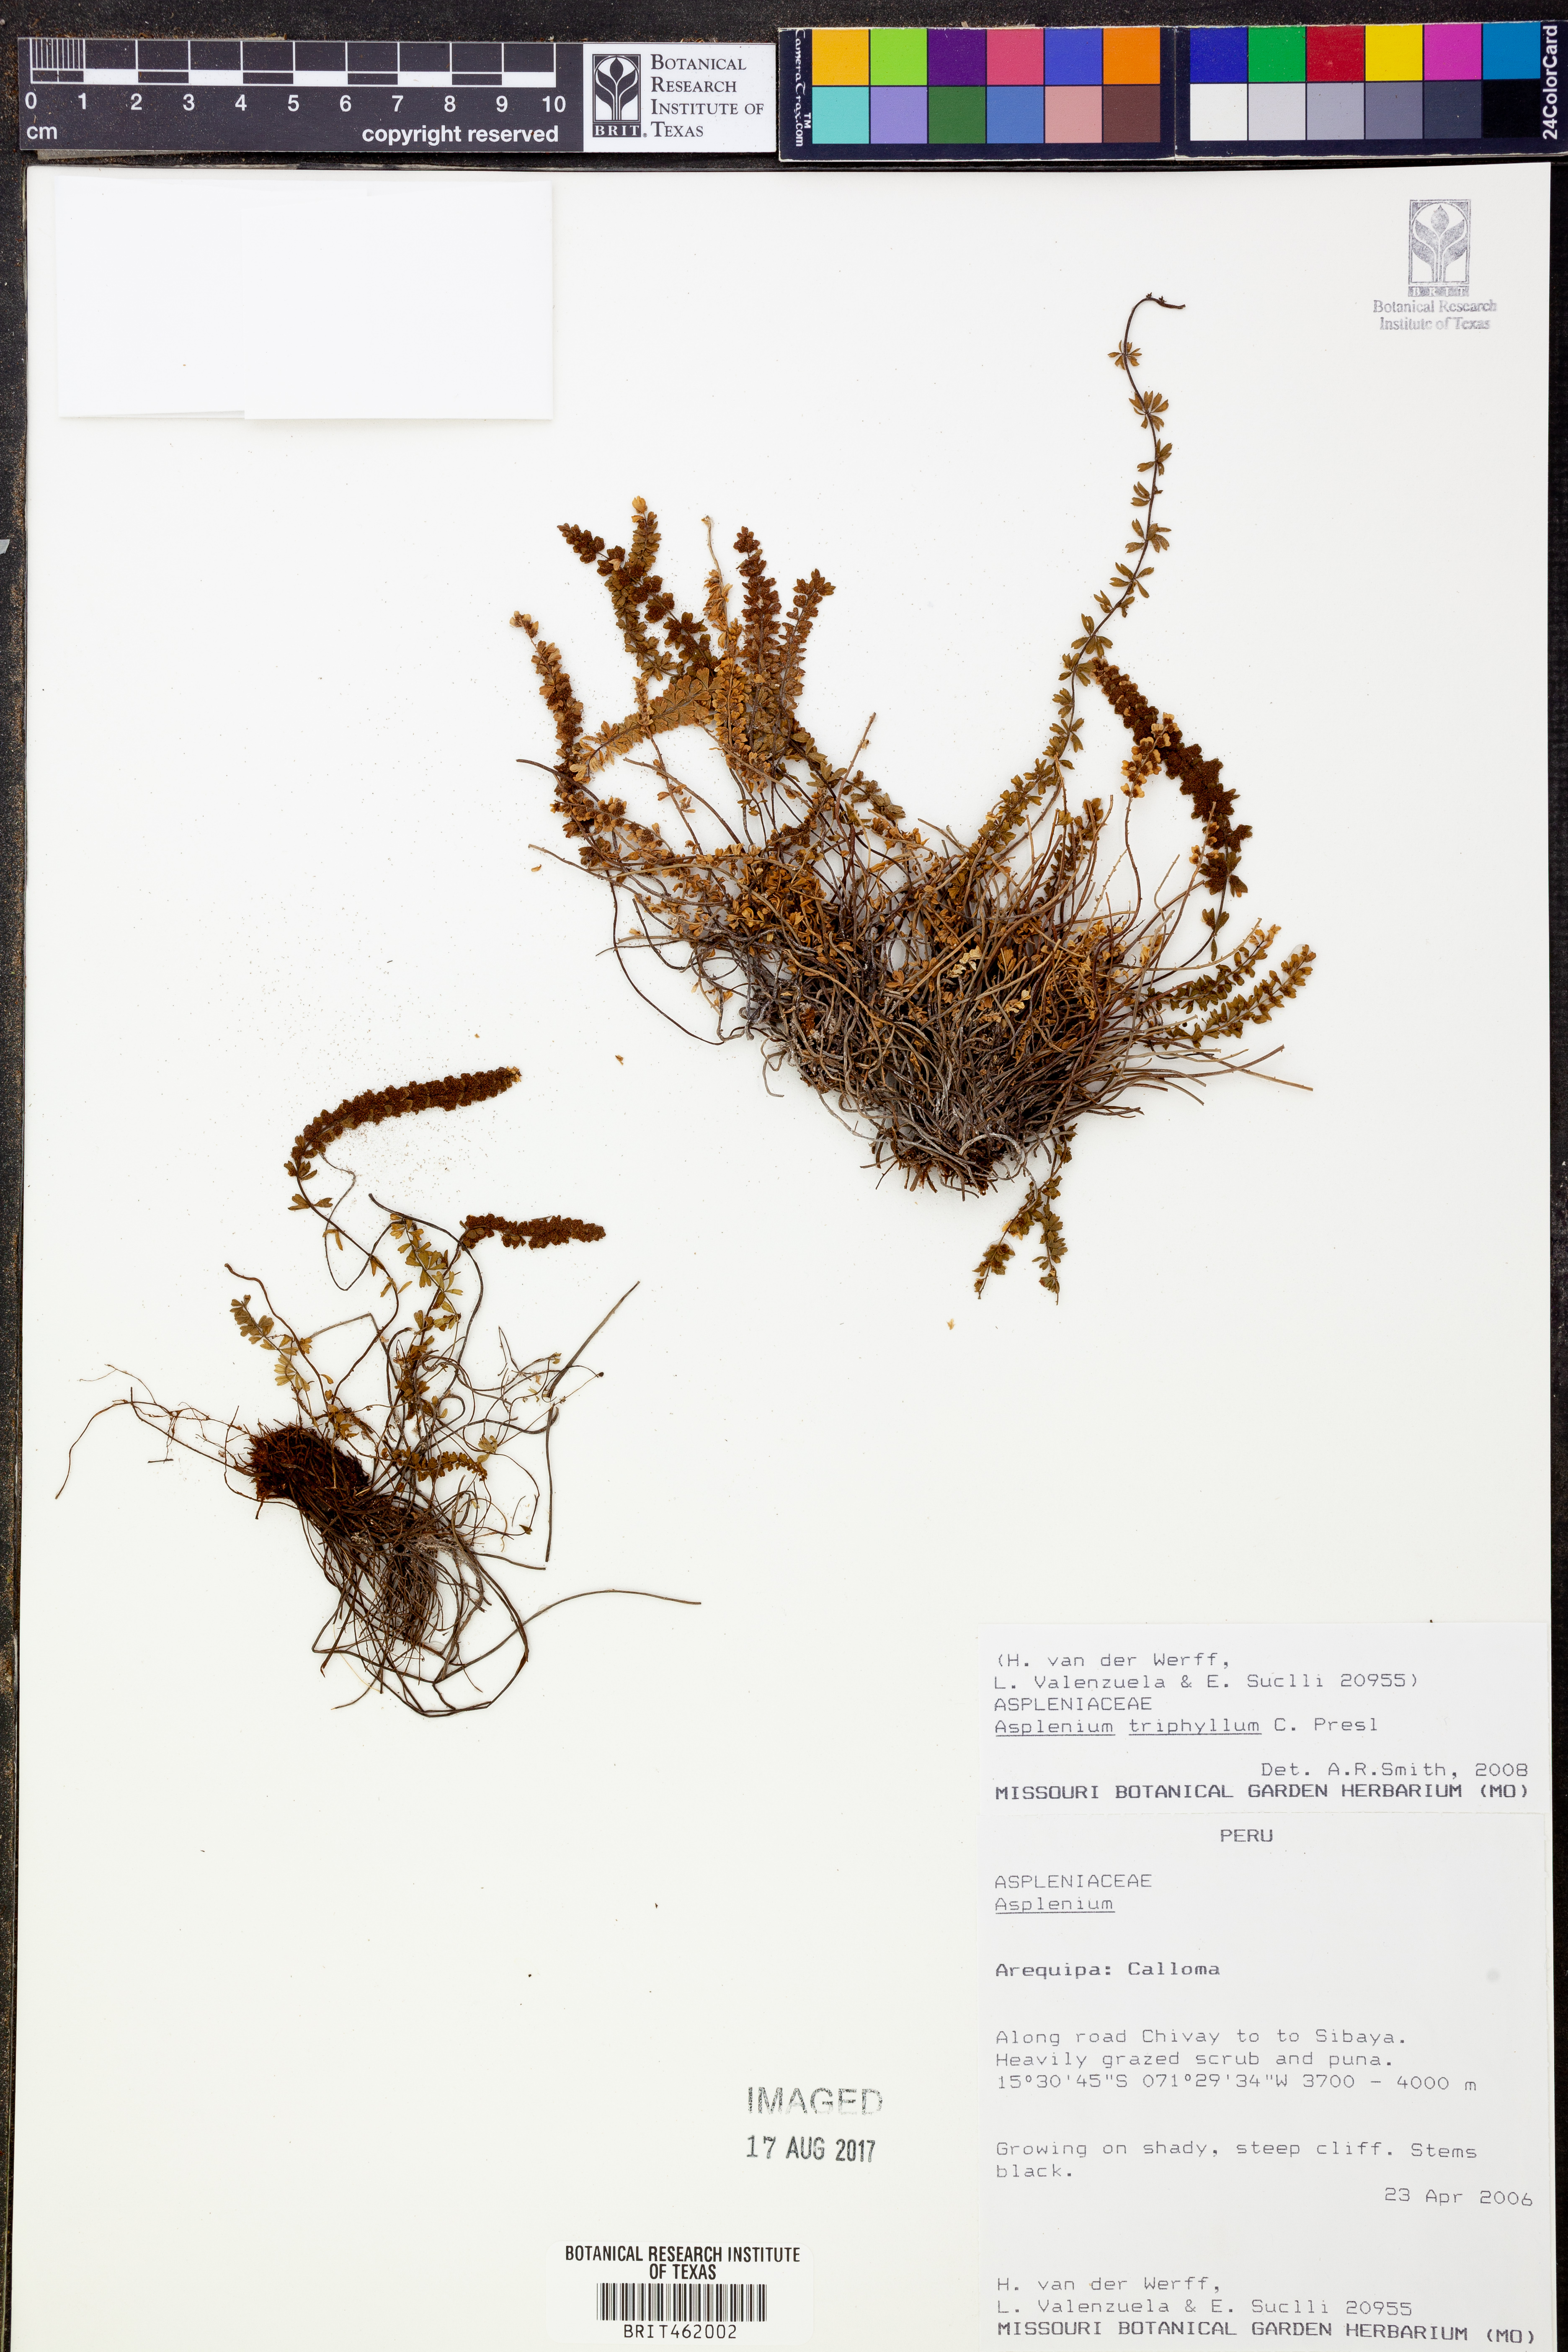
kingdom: Plantae
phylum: Tracheophyta
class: Polypodiopsida
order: Polypodiales
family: Aspleniaceae
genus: Asplenium
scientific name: Asplenium triphyllum
